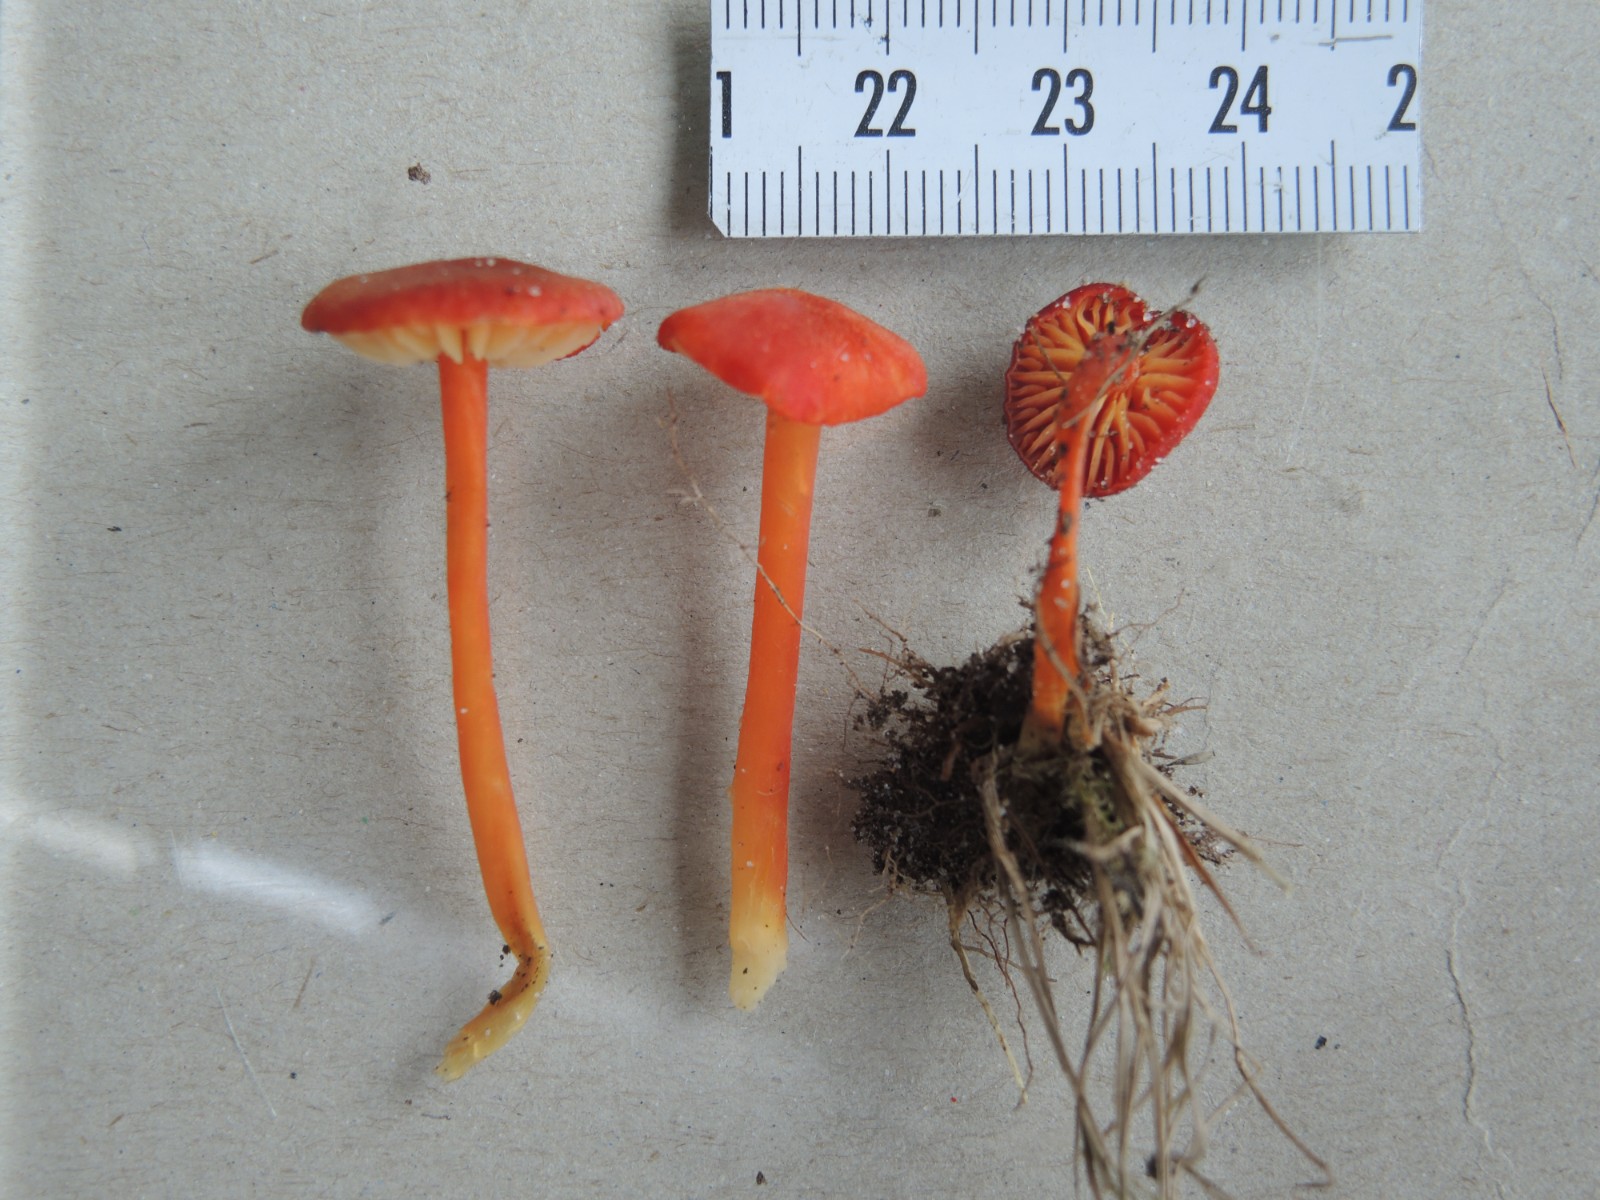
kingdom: Fungi
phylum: Basidiomycota
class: Agaricomycetes
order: Agaricales
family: Hygrophoraceae
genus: Hygrocybe
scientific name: Hygrocybe helobia
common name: hvidløgs-vokshat
